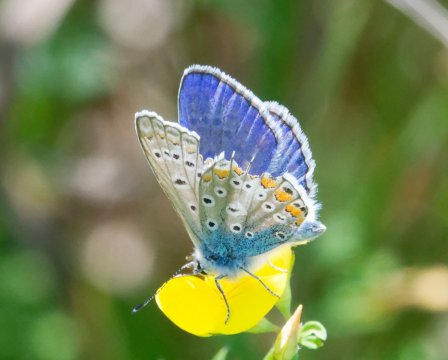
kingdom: Animalia
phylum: Arthropoda
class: Insecta
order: Lepidoptera
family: Lycaenidae
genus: Polyommatus
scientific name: Polyommatus icarus
